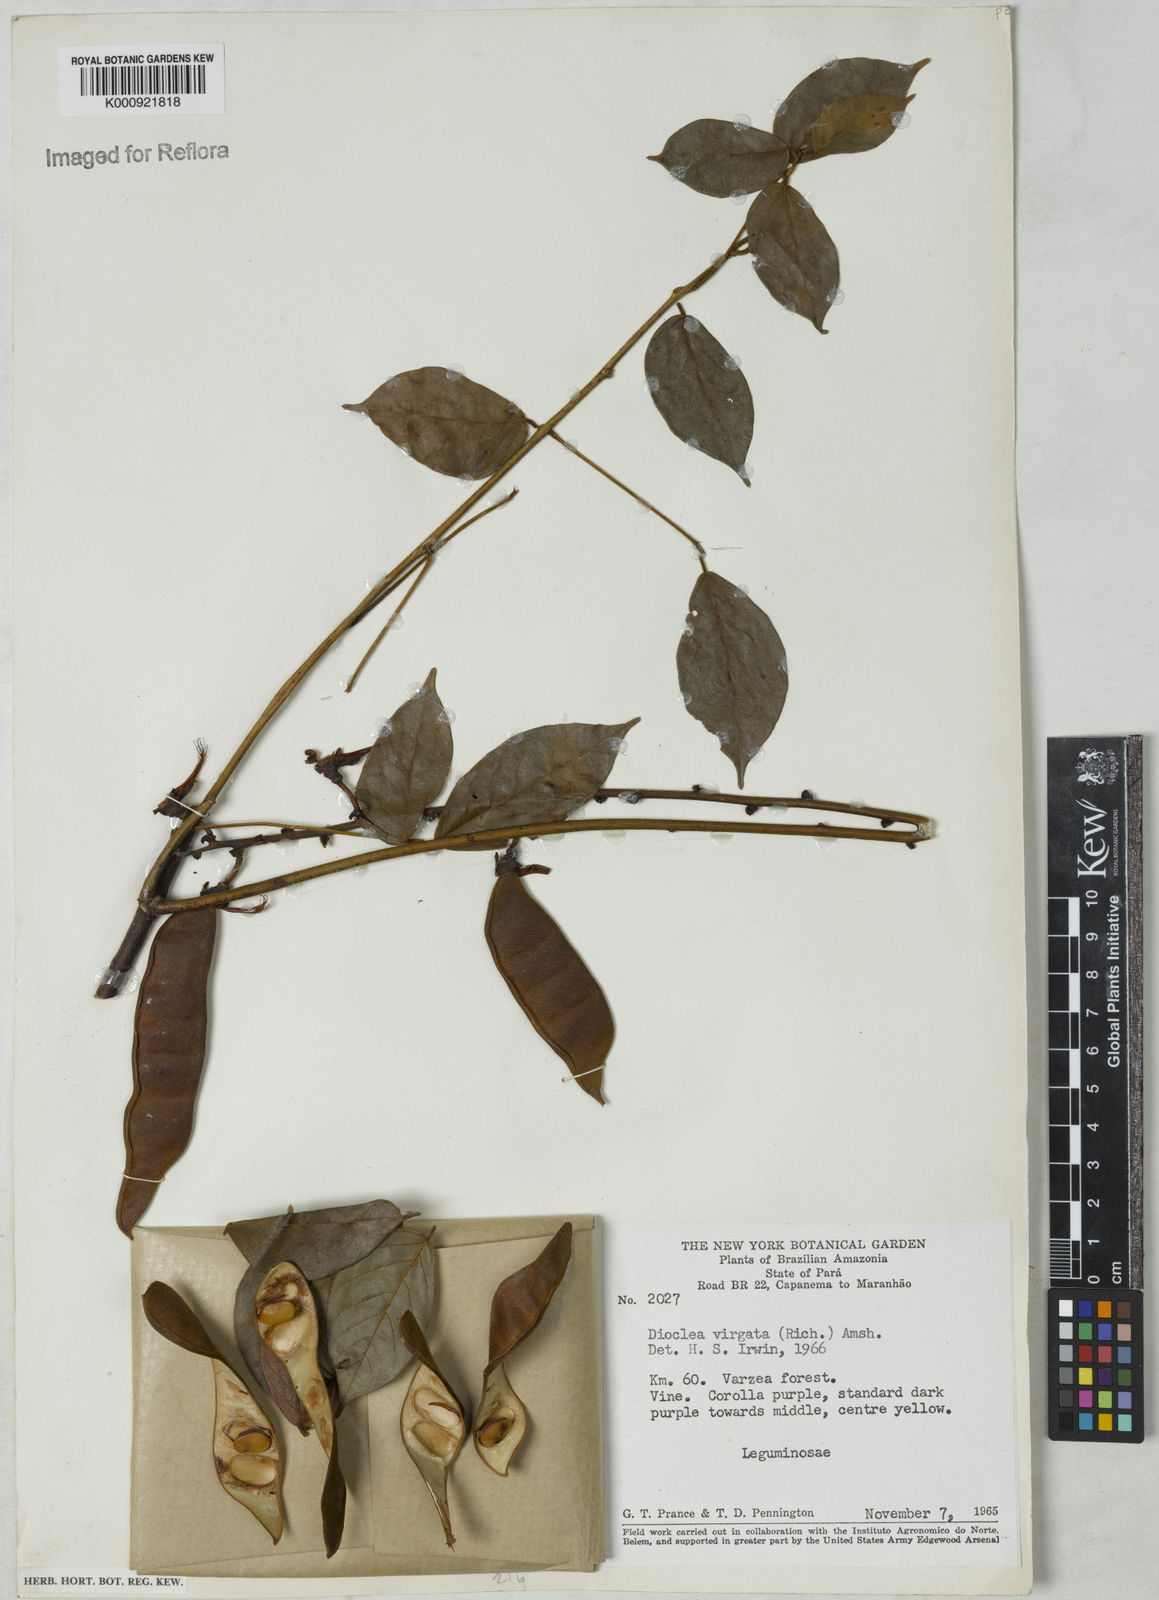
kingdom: Plantae
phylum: Tracheophyta
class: Magnoliopsida
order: Fabales
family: Fabaceae
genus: Dioclea
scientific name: Dioclea virgata
